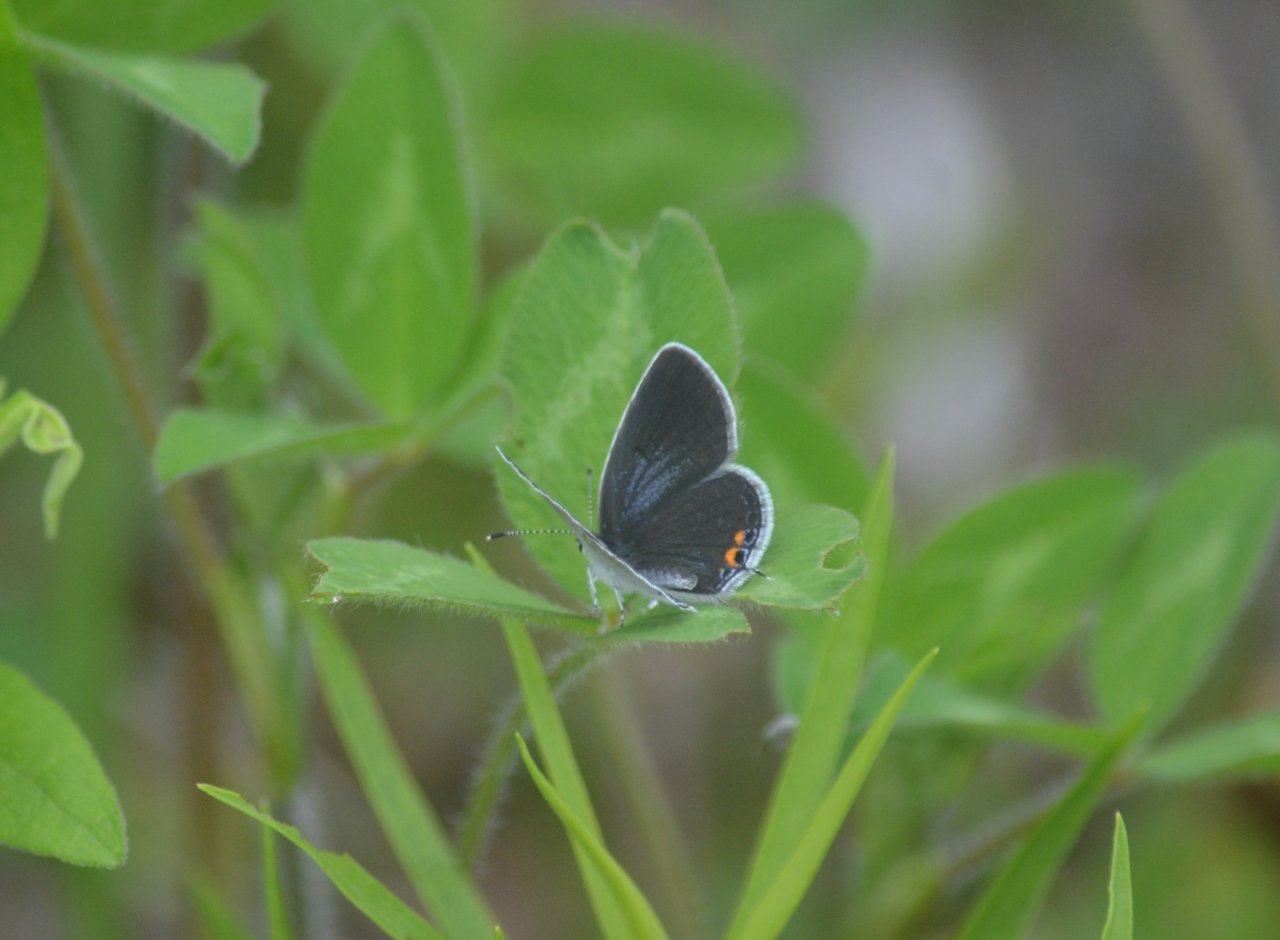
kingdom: Animalia
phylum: Arthropoda
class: Insecta
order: Lepidoptera
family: Lycaenidae
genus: Elkalyce
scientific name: Elkalyce comyntas
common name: Eastern Tailed-Blue
